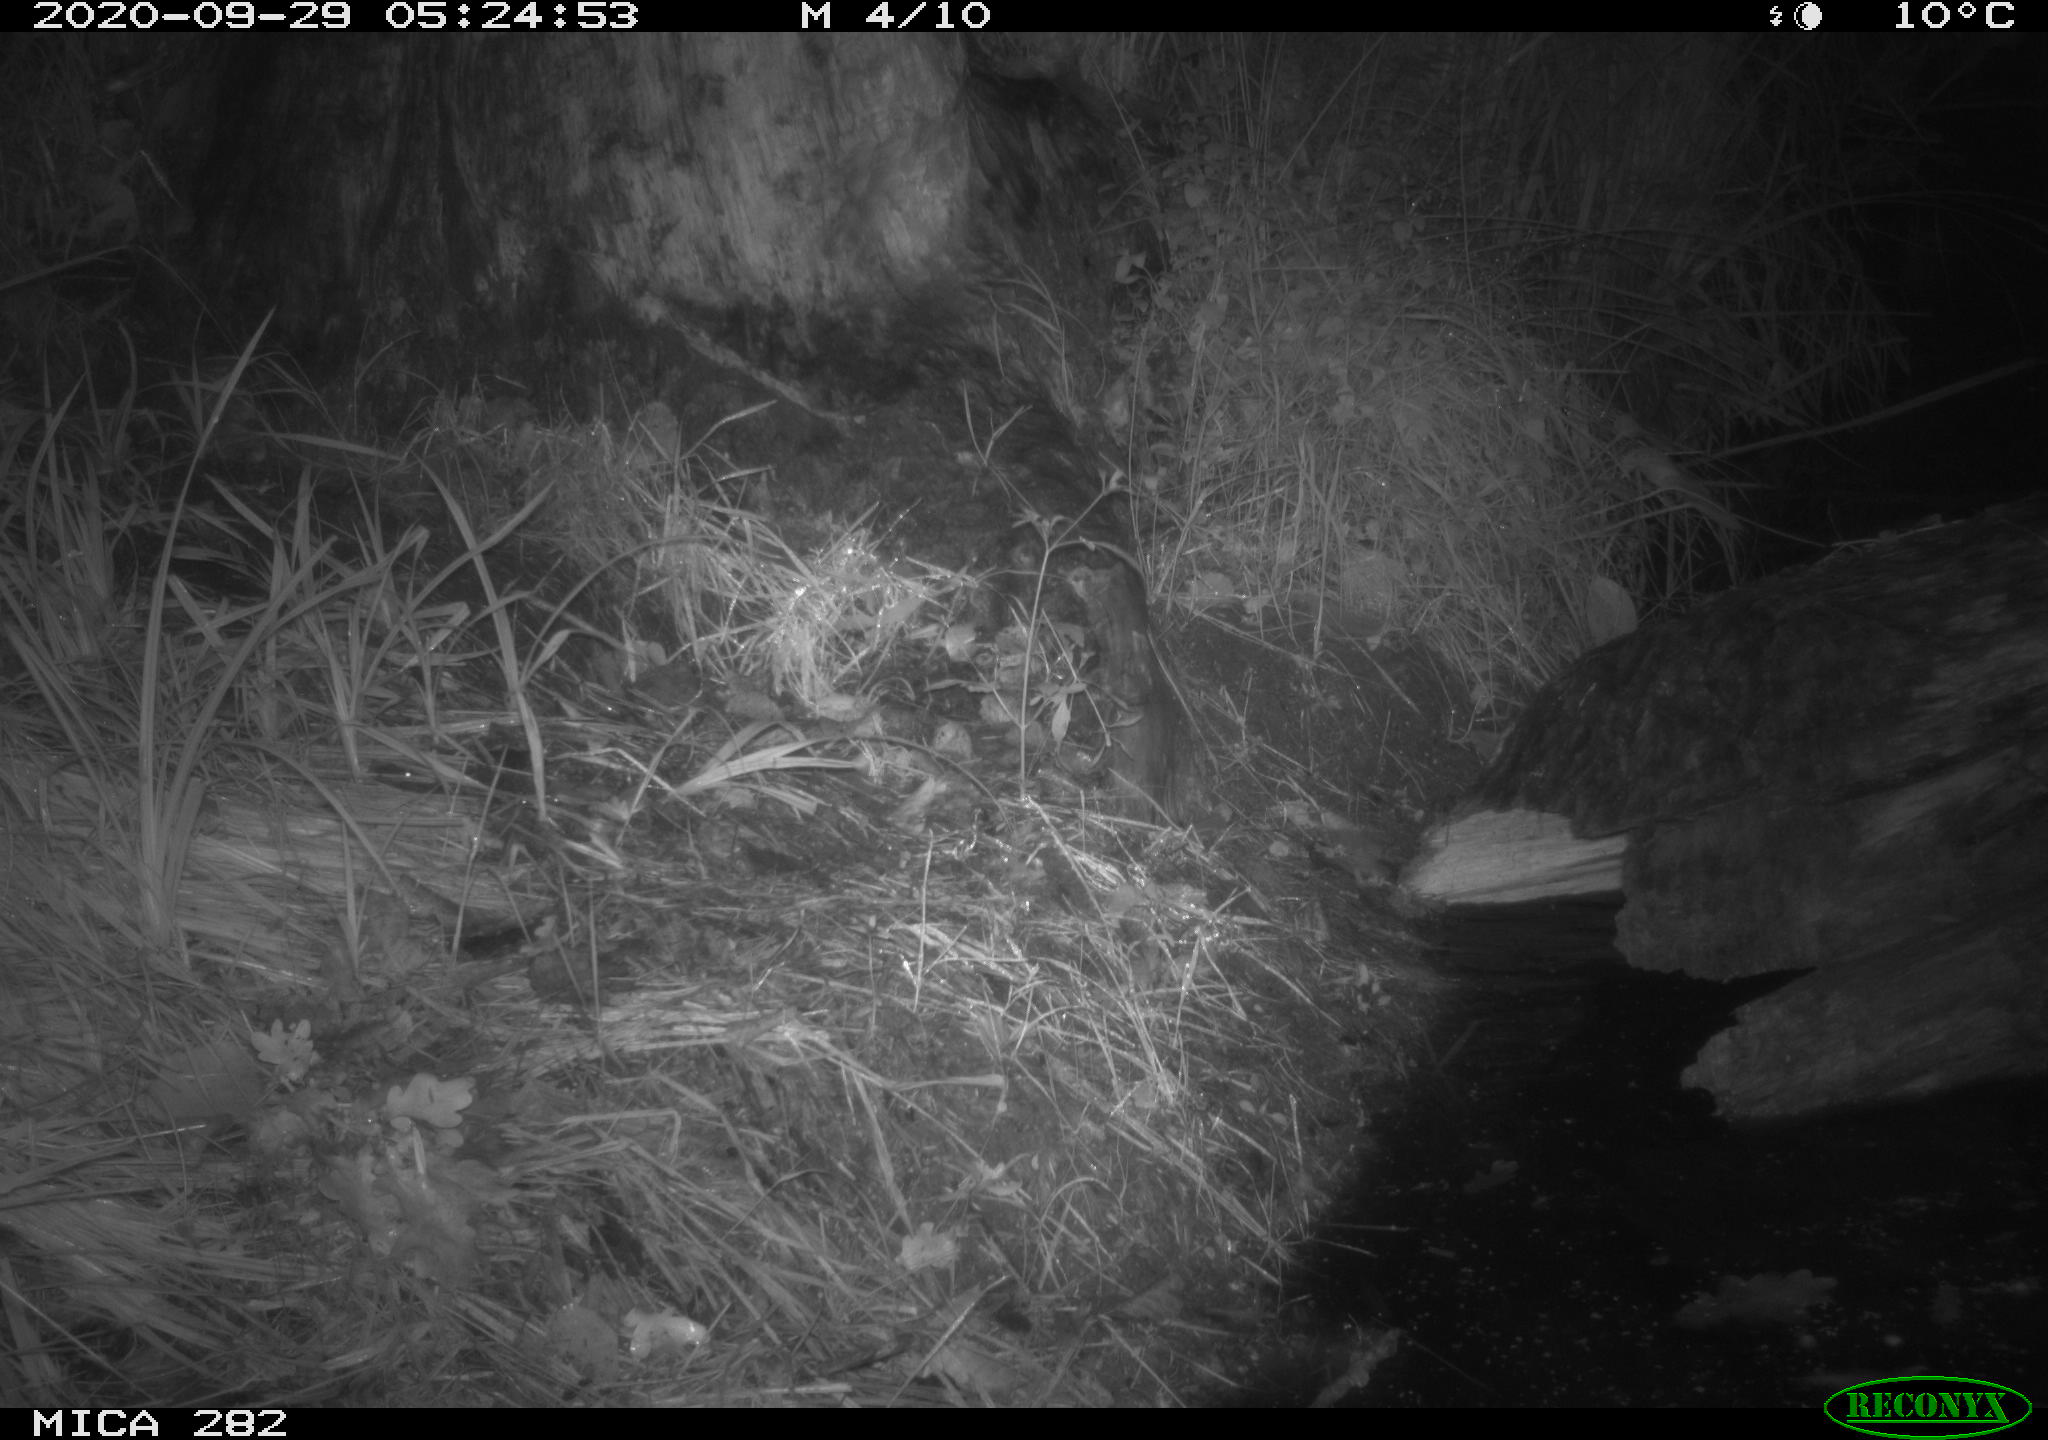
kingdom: Animalia
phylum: Chordata
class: Mammalia
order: Carnivora
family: Canidae
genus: Vulpes
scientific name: Vulpes vulpes
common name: Red fox
